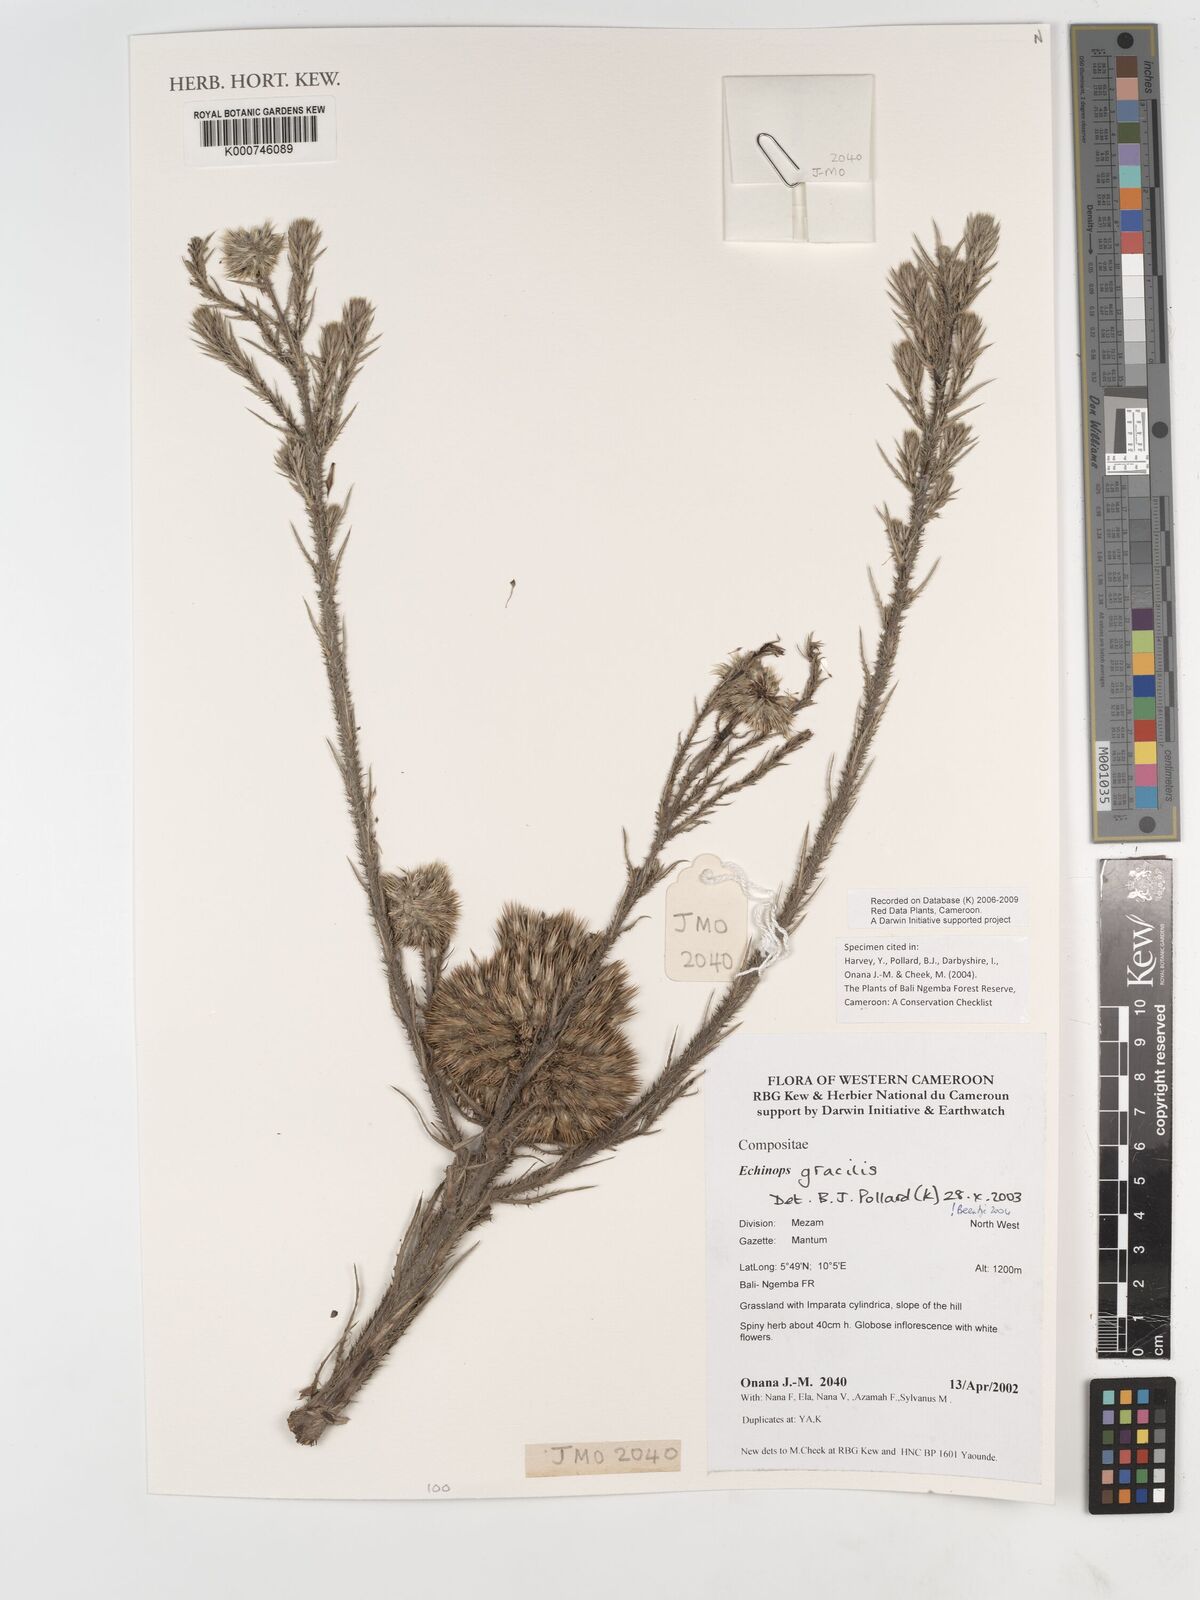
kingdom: Plantae
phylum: Tracheophyta
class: Magnoliopsida
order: Asterales
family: Asteraceae
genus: Echinops
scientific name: Echinops gracilis
